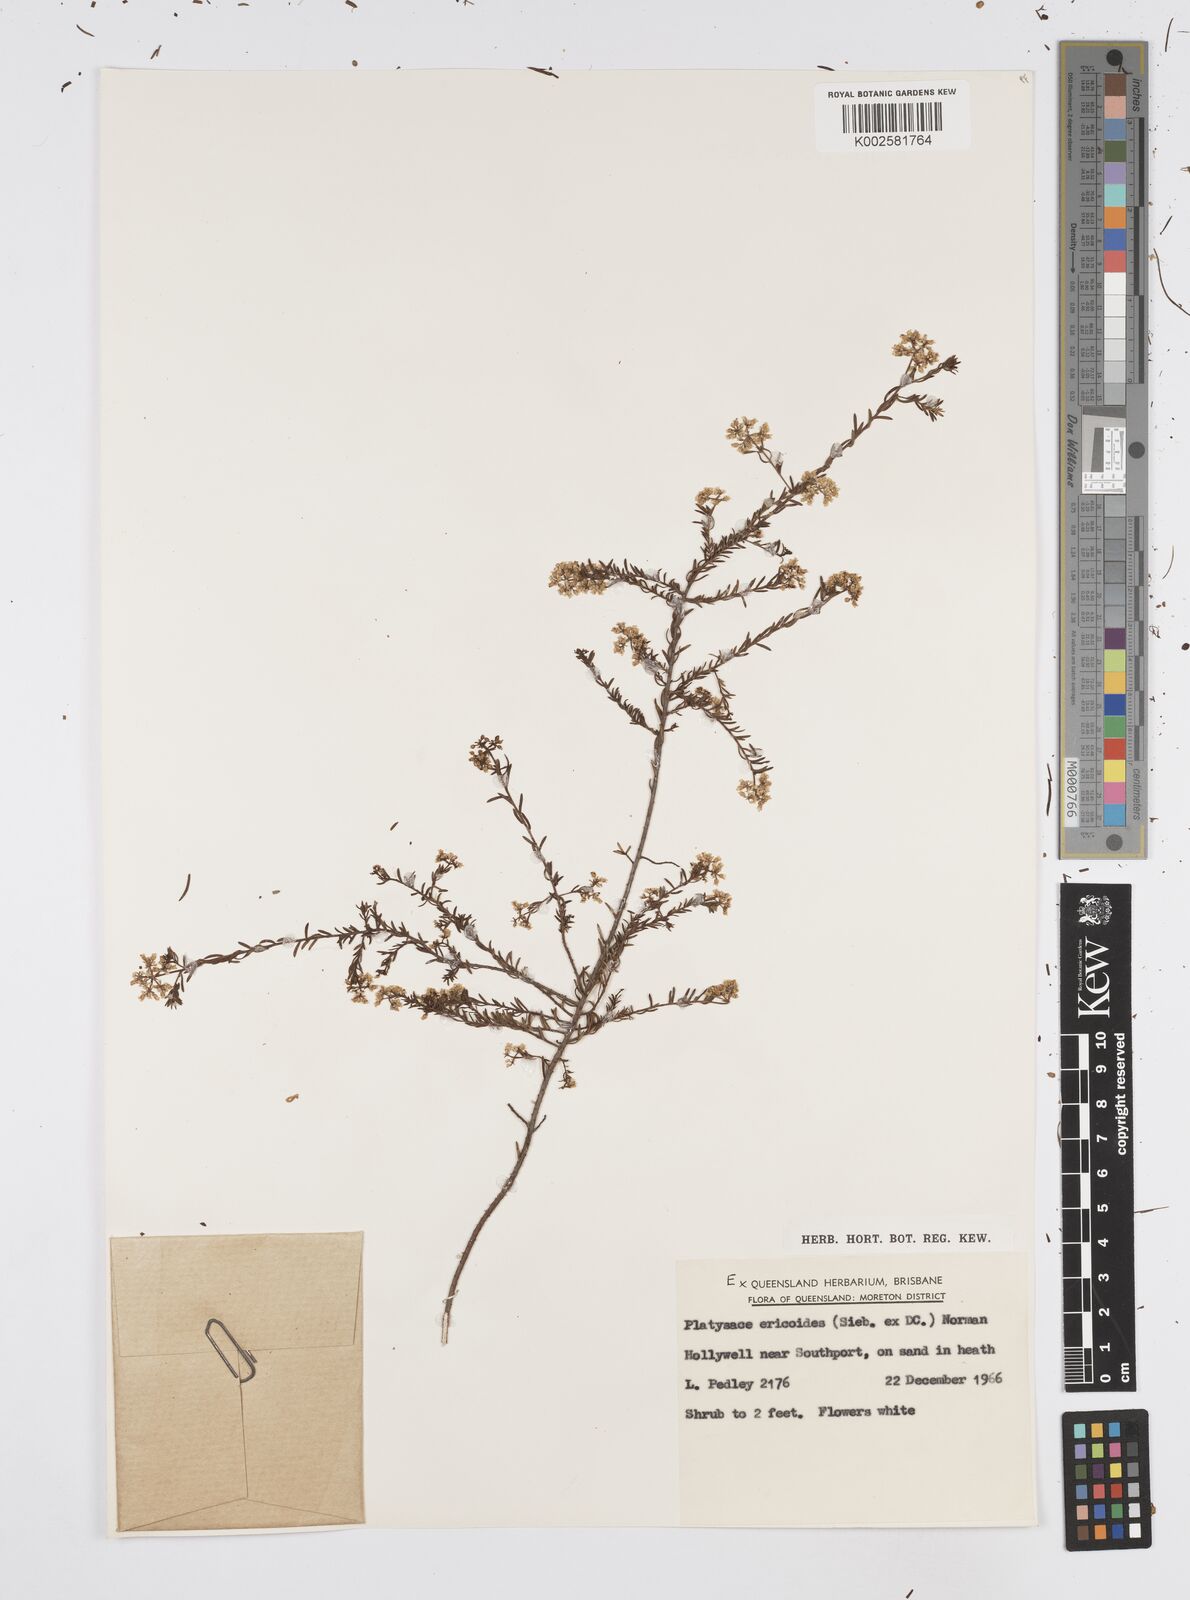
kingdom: Plantae
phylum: Tracheophyta
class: Magnoliopsida
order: Apiales
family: Apiaceae
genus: Platysace
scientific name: Platysace ericoides
